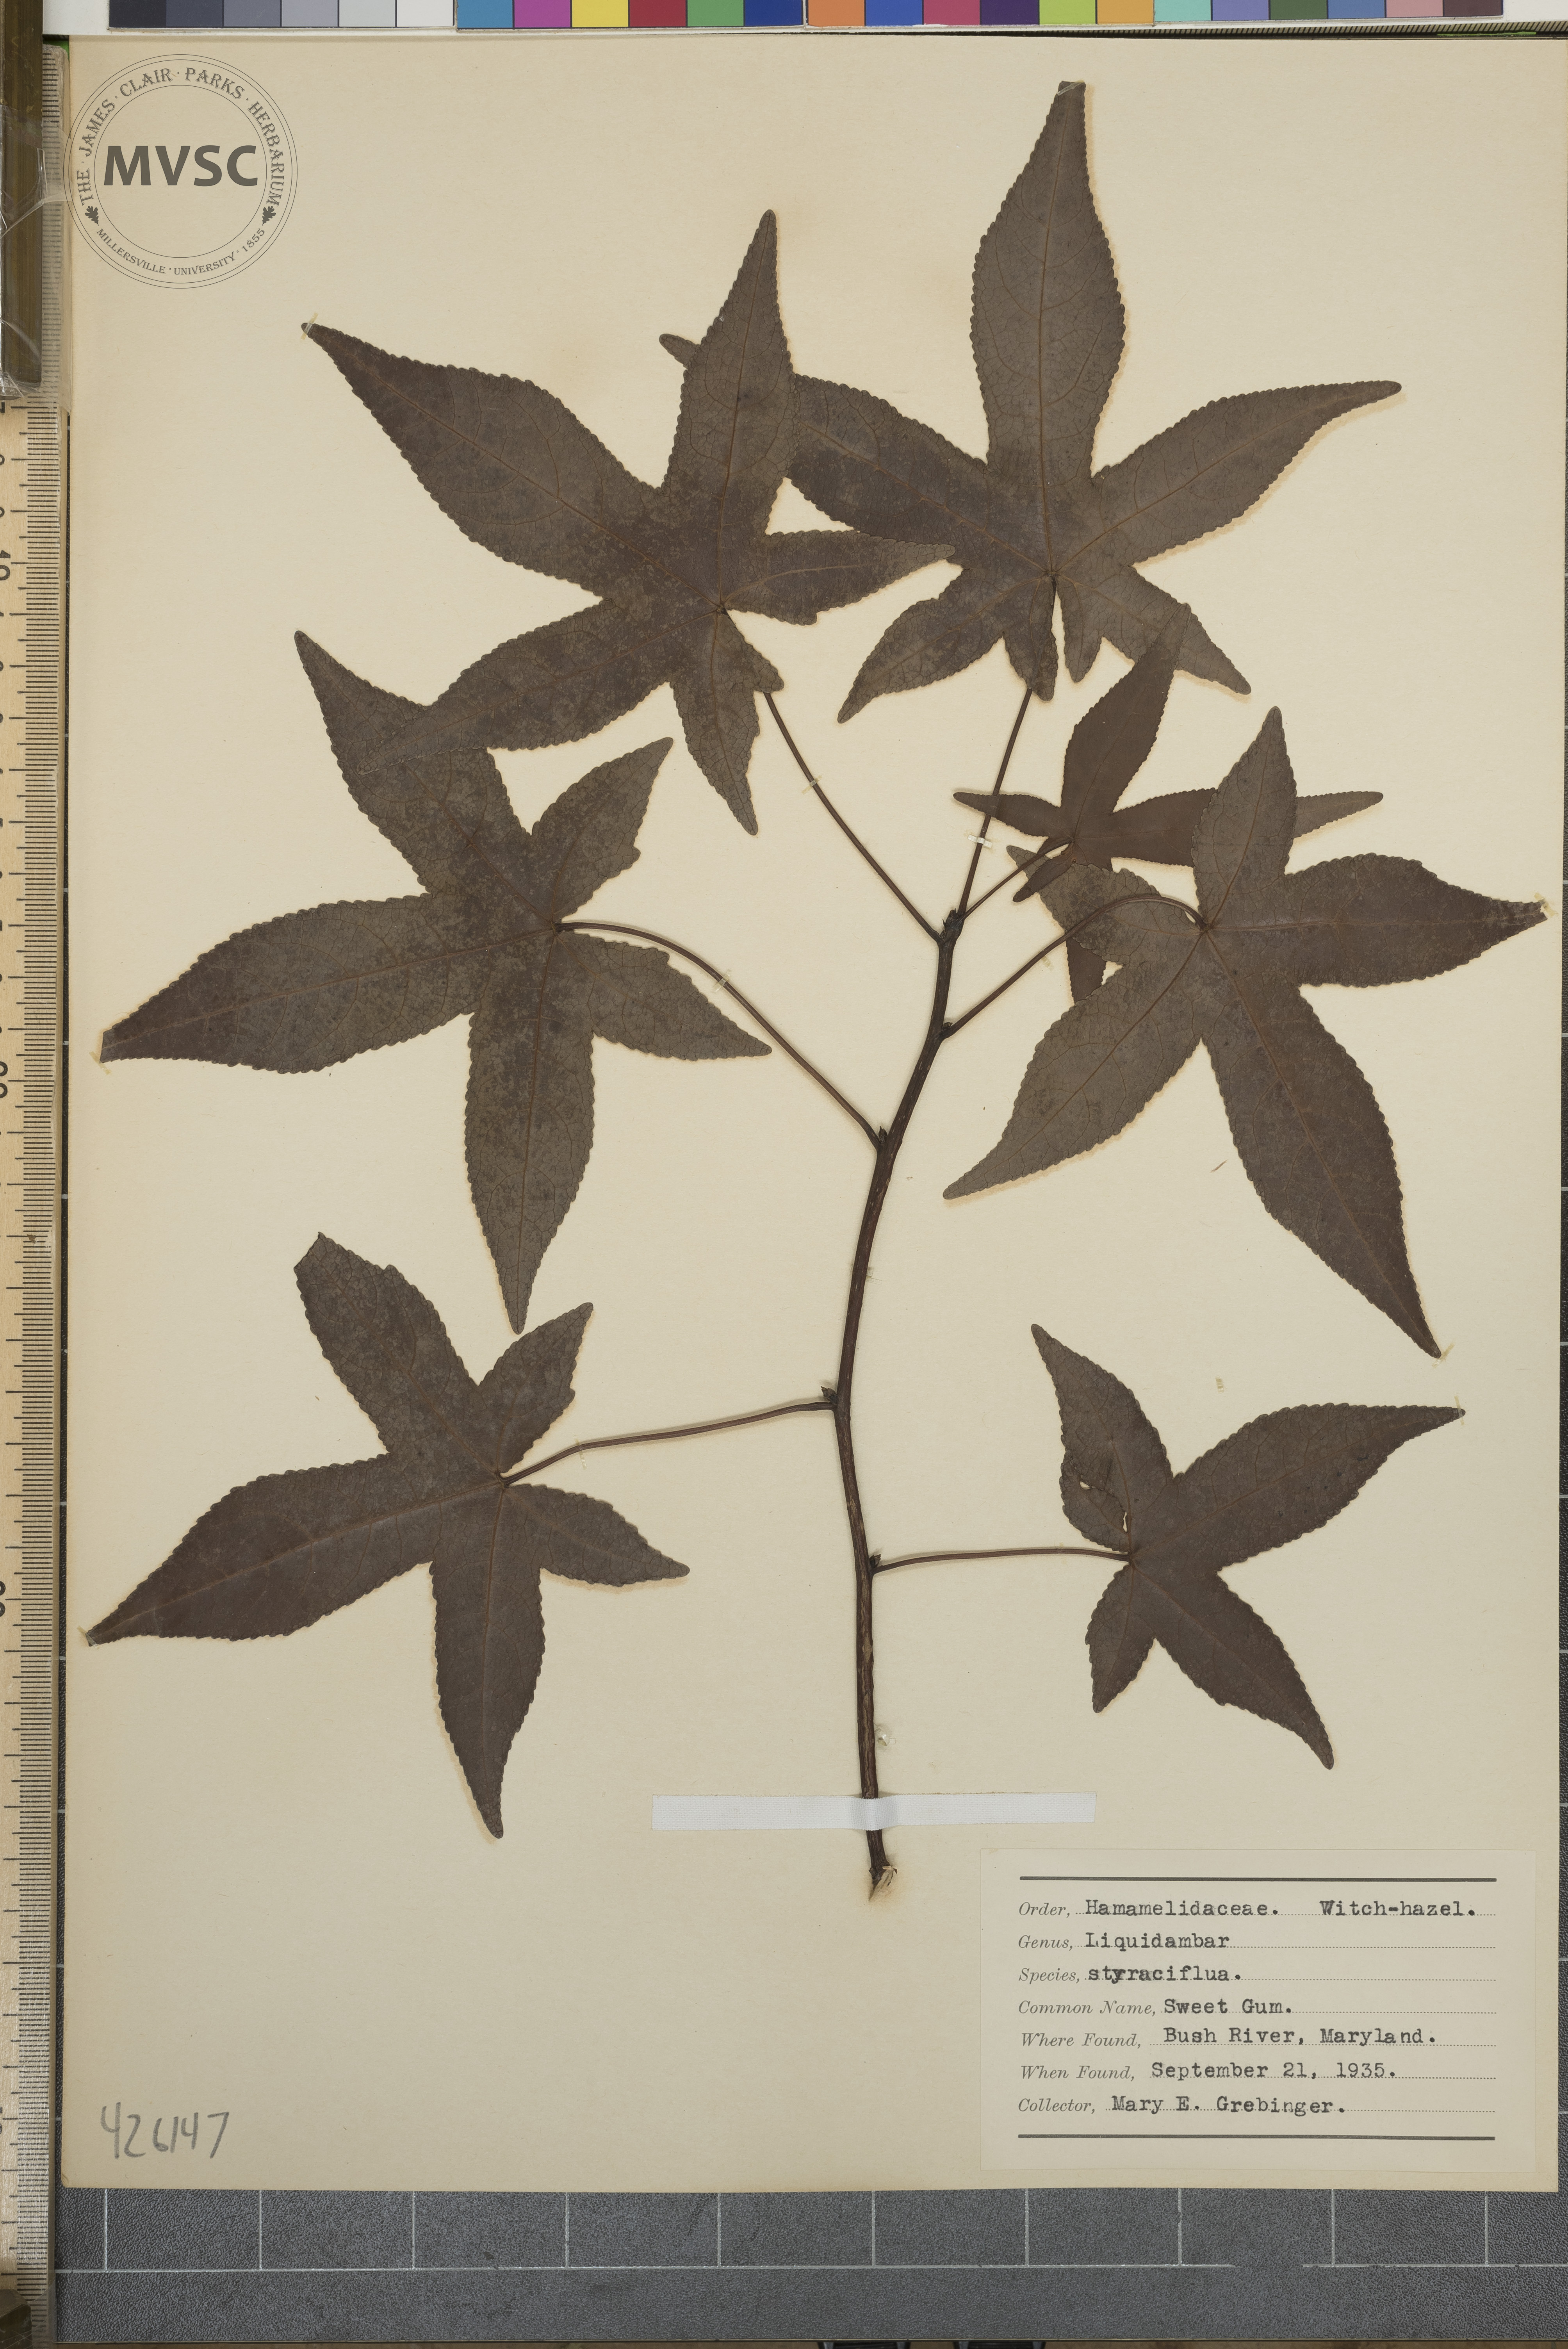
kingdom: Plantae
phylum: Tracheophyta
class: Magnoliopsida
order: Saxifragales
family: Altingiaceae
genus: Liquidambar
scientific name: Liquidambar styraciflua
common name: Sweet gum
